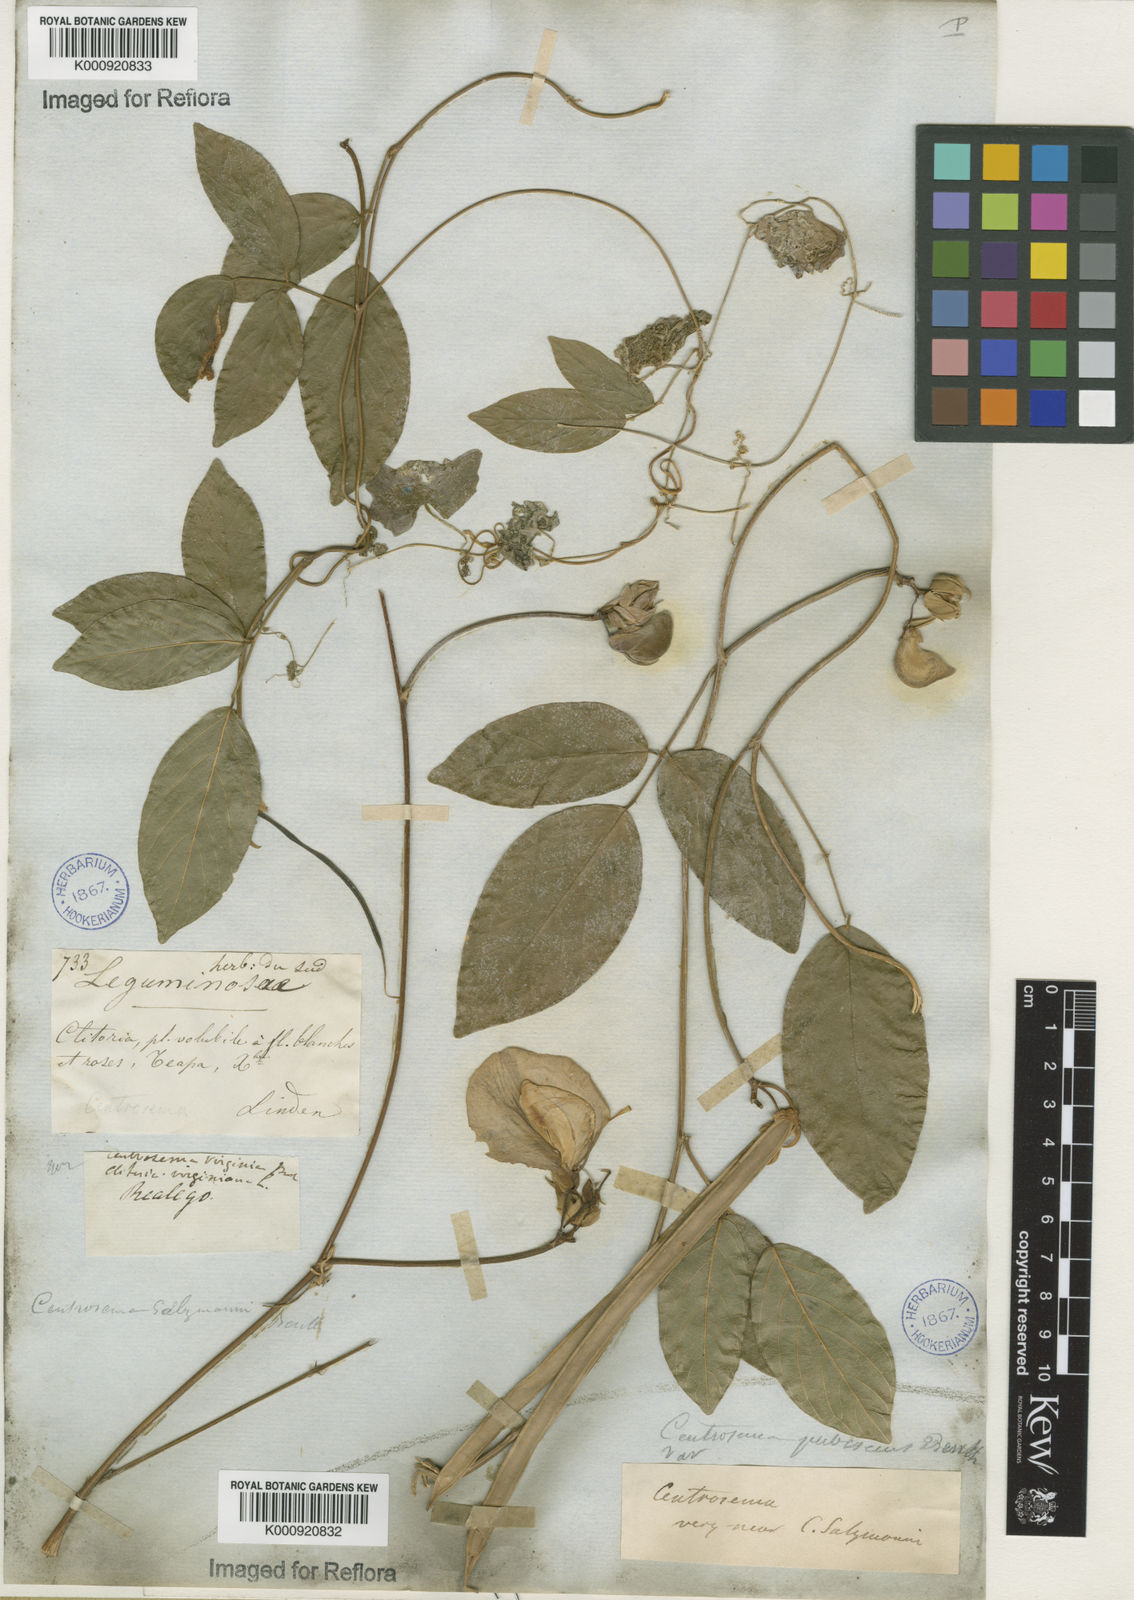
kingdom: Plantae
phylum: Tracheophyta
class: Magnoliopsida
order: Fabales
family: Fabaceae
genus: Centrosema
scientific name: Centrosema pubescens
